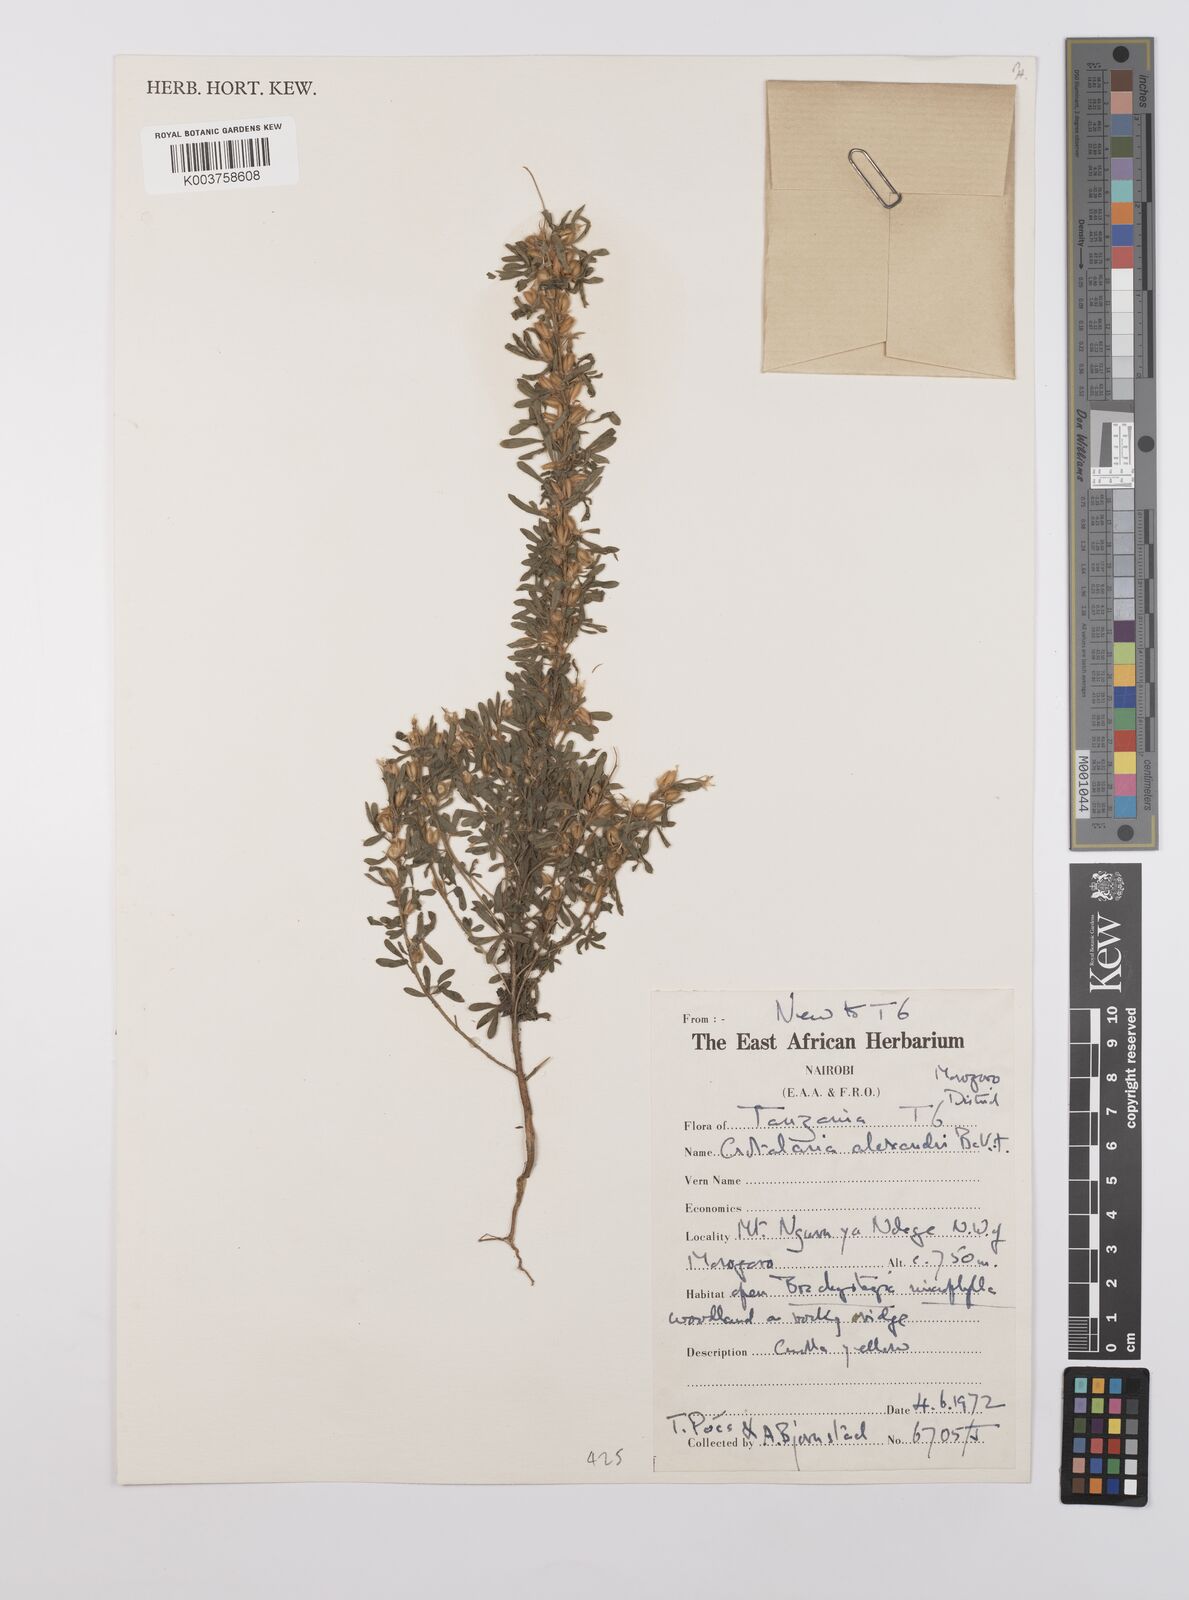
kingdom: Plantae
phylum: Tracheophyta
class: Magnoliopsida
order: Fabales
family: Fabaceae
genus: Crotalaria
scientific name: Crotalaria alexandri
